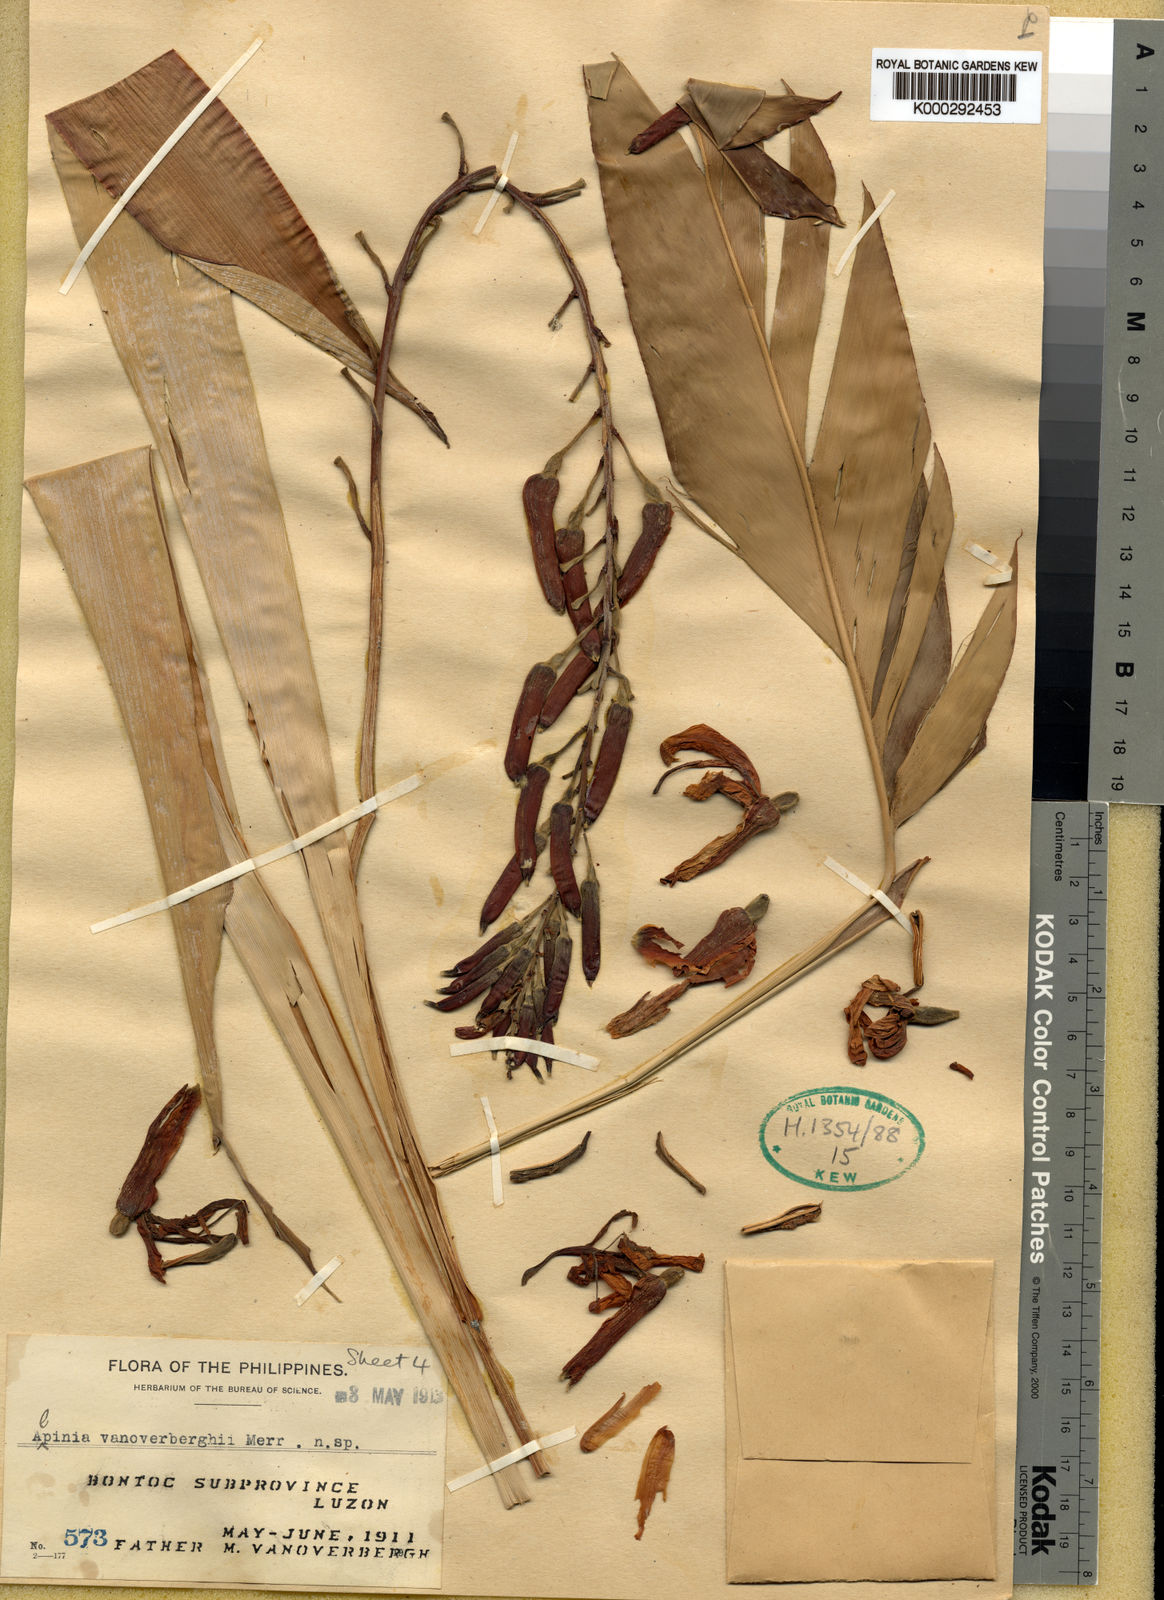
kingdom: Plantae
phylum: Tracheophyta
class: Liliopsida
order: Zingiberales
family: Zingiberaceae
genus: Vanoverberghia
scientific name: Vanoverberghia vanoverberghii
